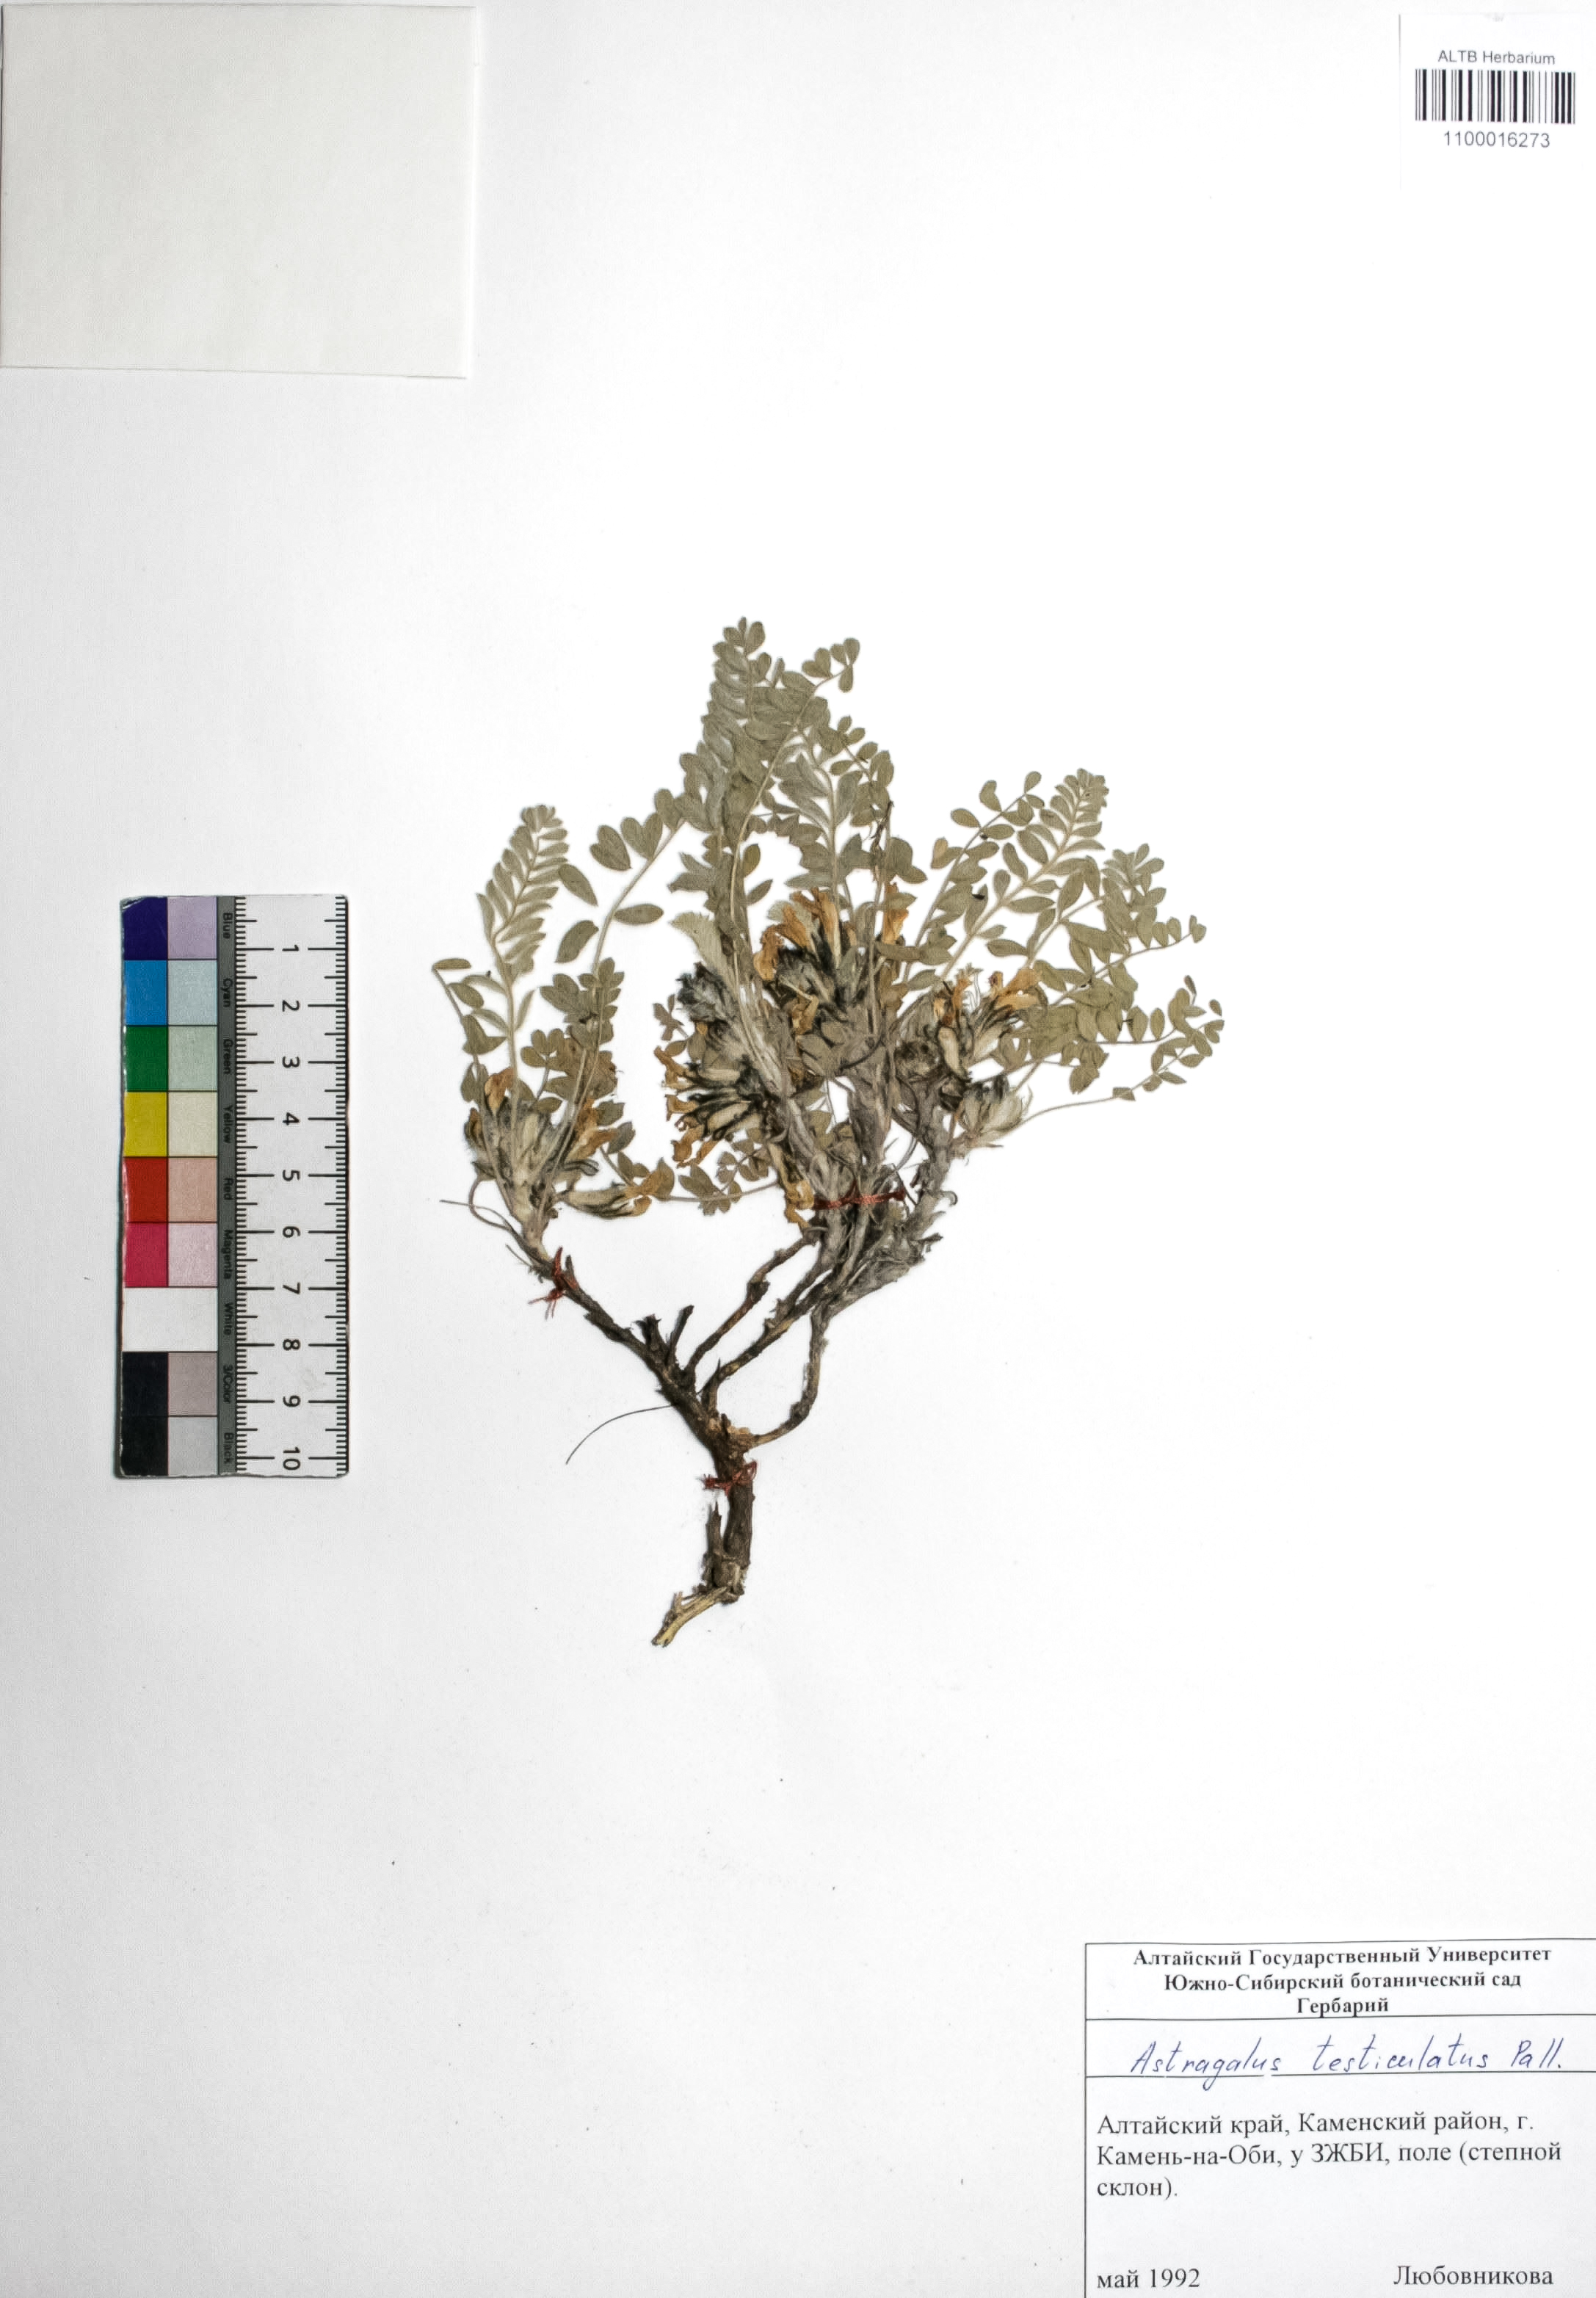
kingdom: Plantae
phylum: Tracheophyta
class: Magnoliopsida
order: Fabales
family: Fabaceae
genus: Astragalus
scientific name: Astragalus testiculatus
